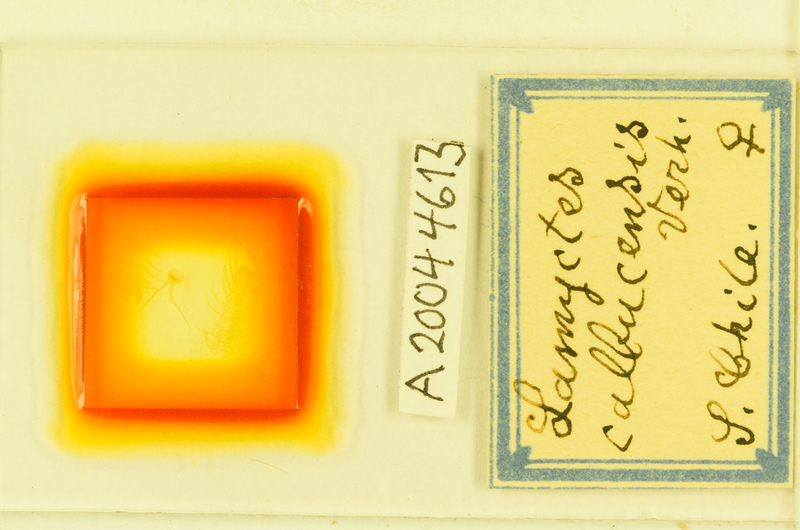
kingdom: Animalia
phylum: Arthropoda
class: Chilopoda
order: Lithobiomorpha
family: Henicopidae
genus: Lamyctes
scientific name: Lamyctes calbucensis
